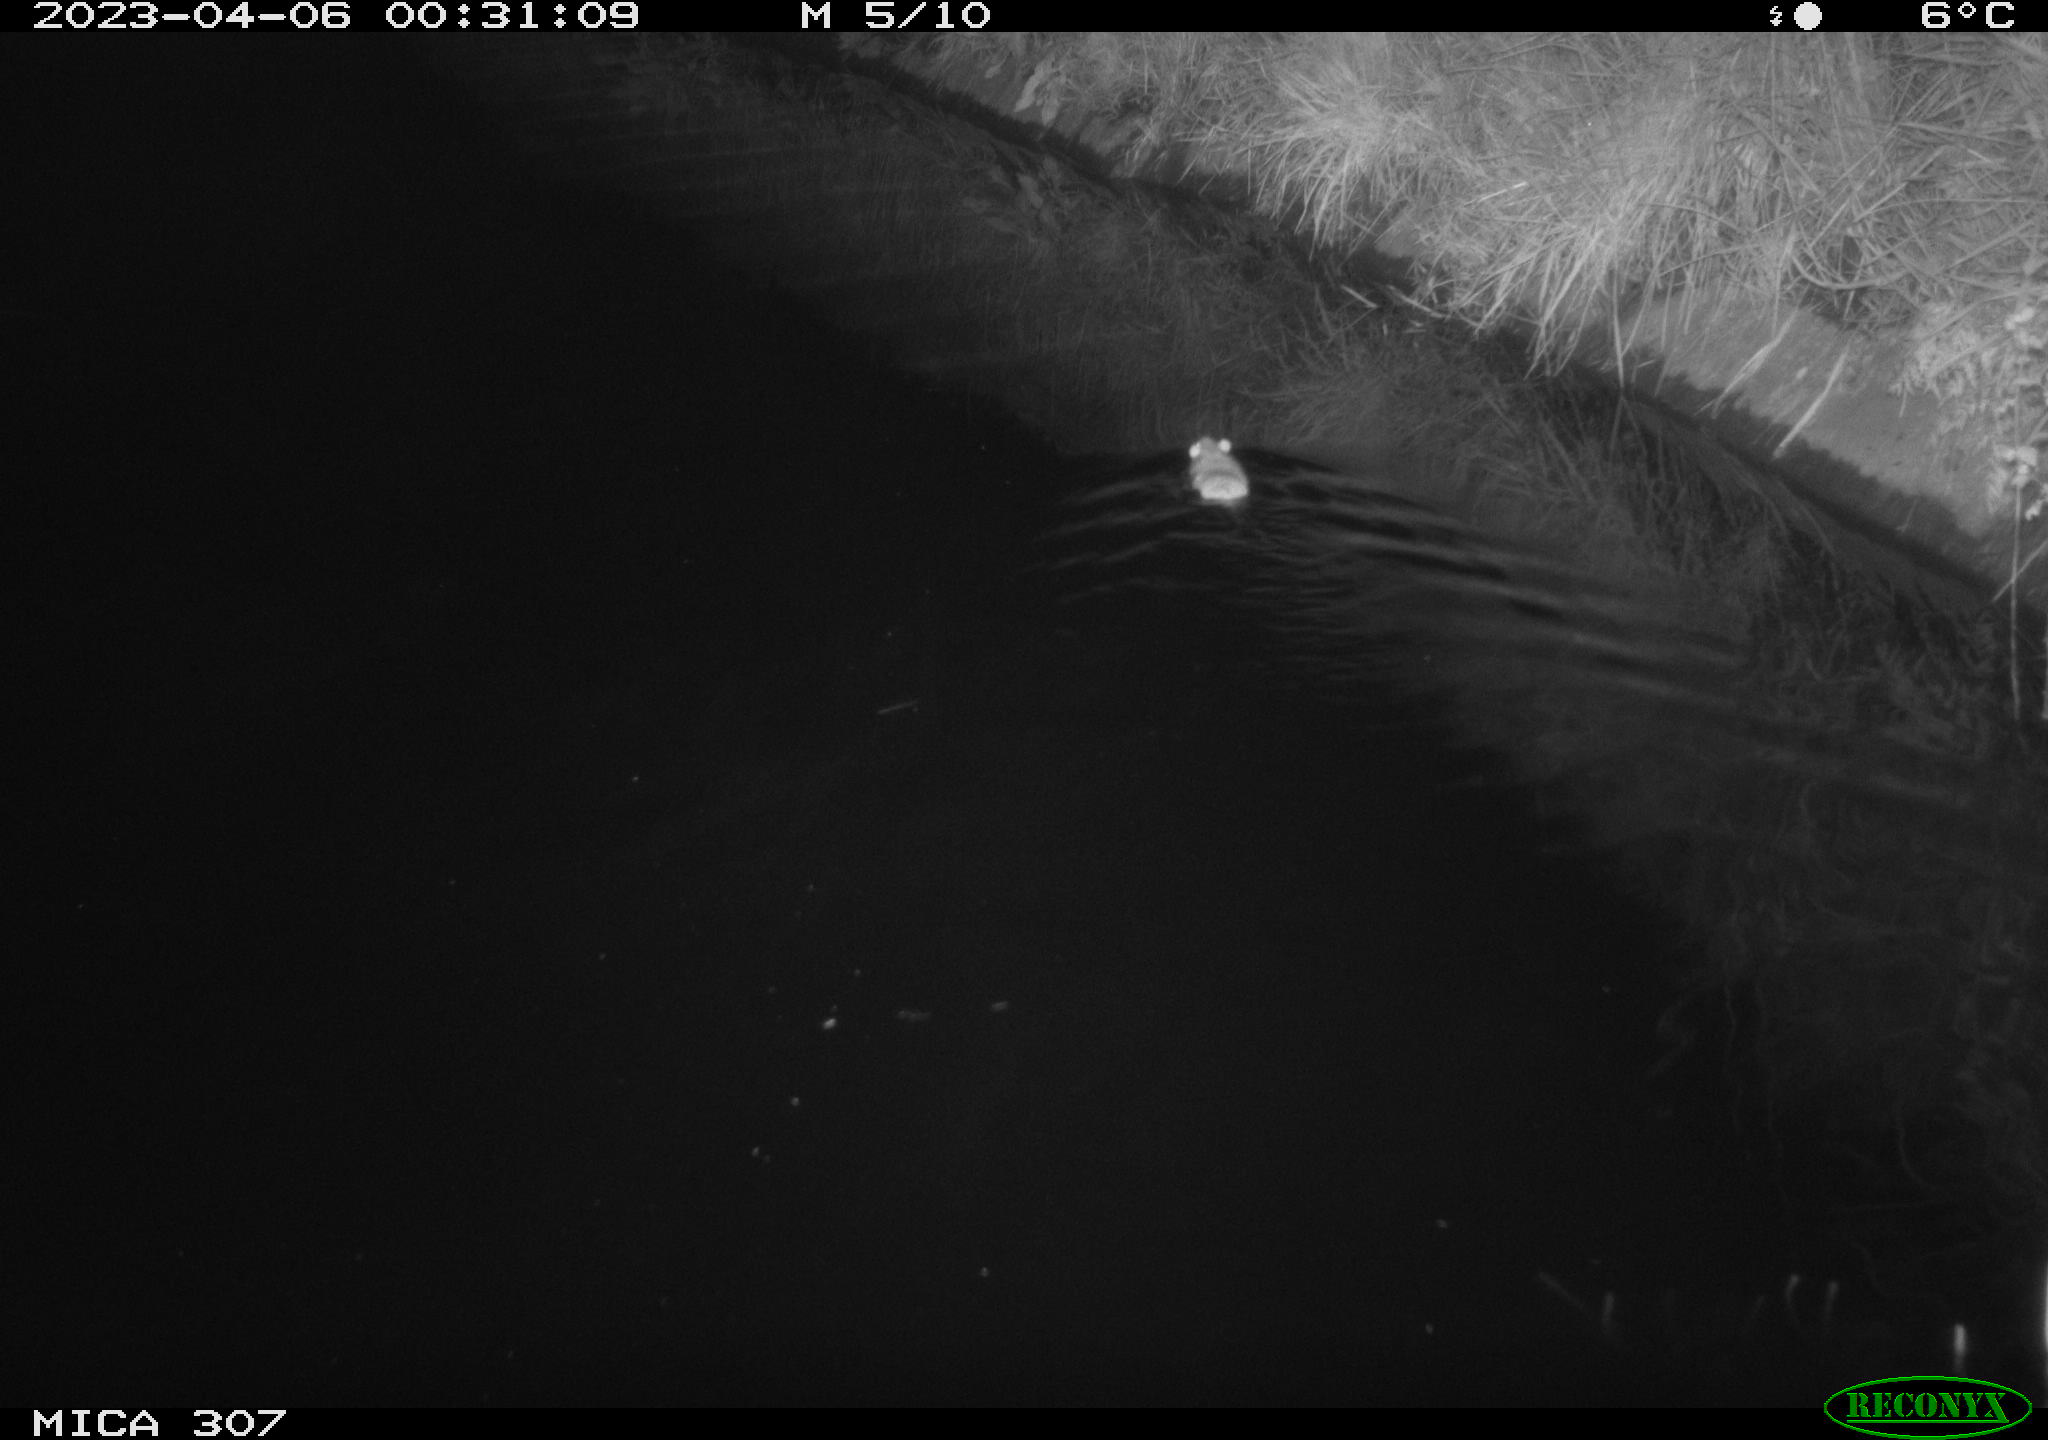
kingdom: Animalia
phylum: Chordata
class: Mammalia
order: Rodentia
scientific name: Rodentia
